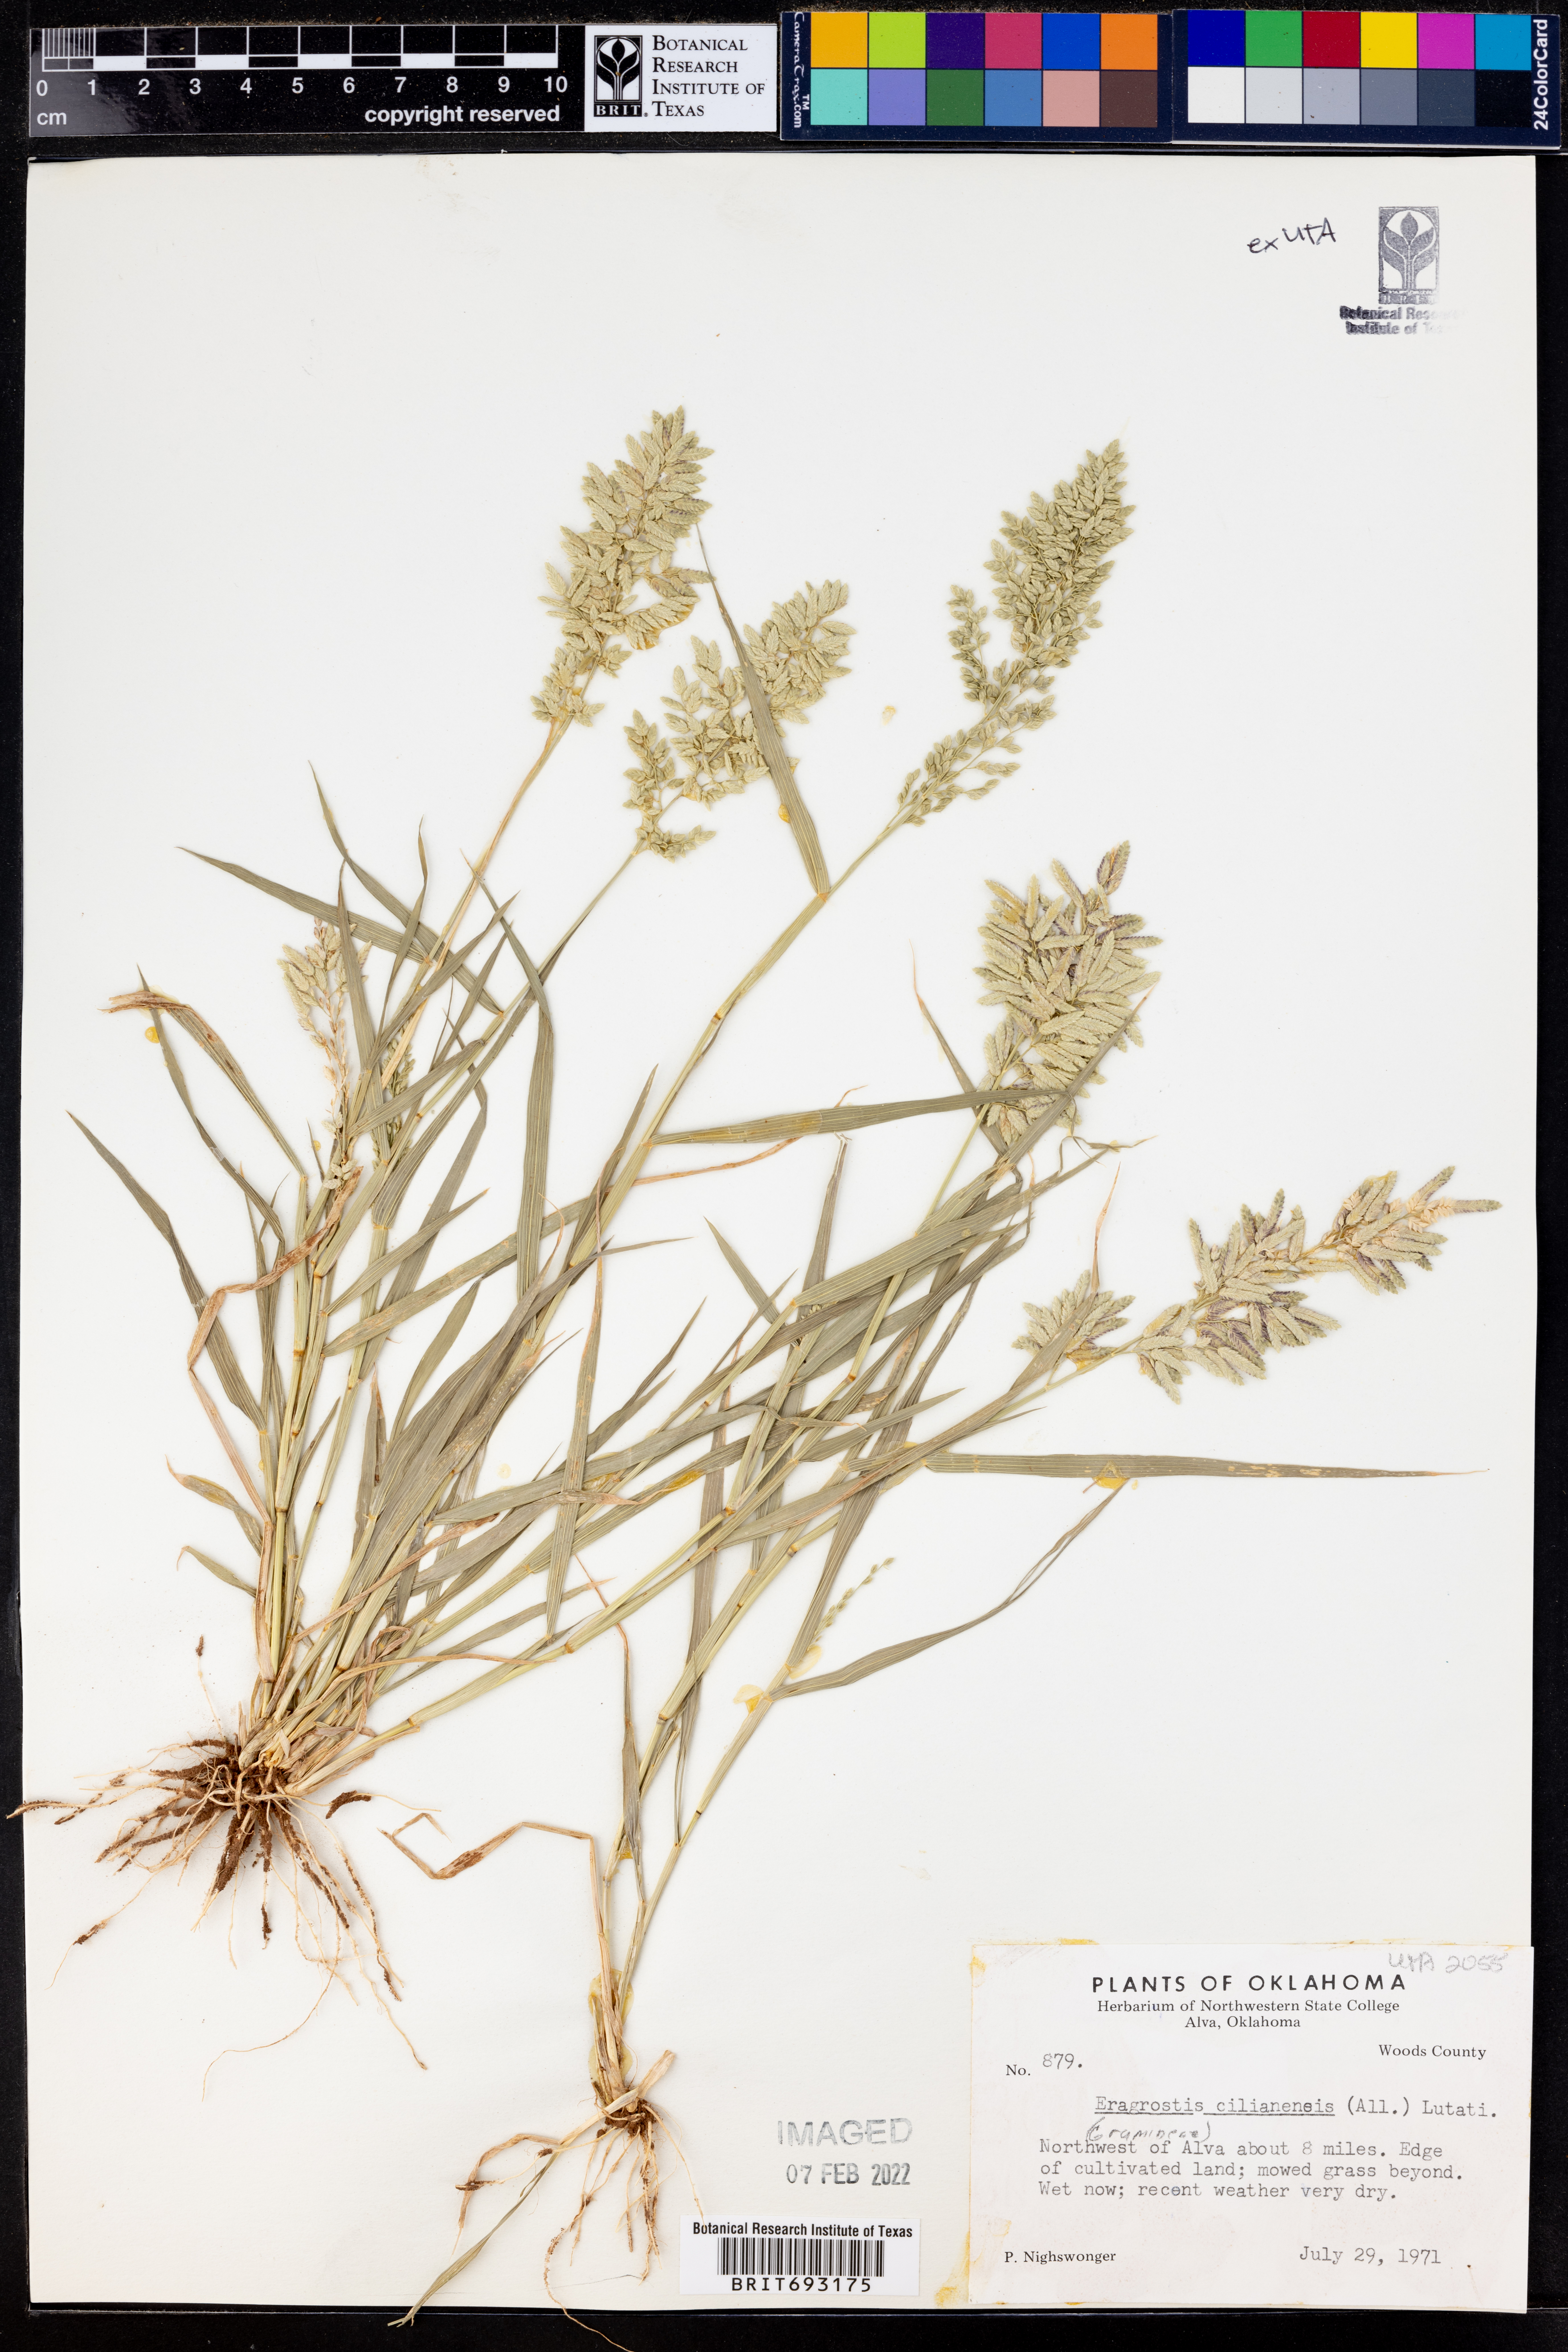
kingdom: Plantae
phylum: Tracheophyta
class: Liliopsida
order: Poales
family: Poaceae
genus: Eragrostis
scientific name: Eragrostis cilianensis
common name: Stinkgrass
